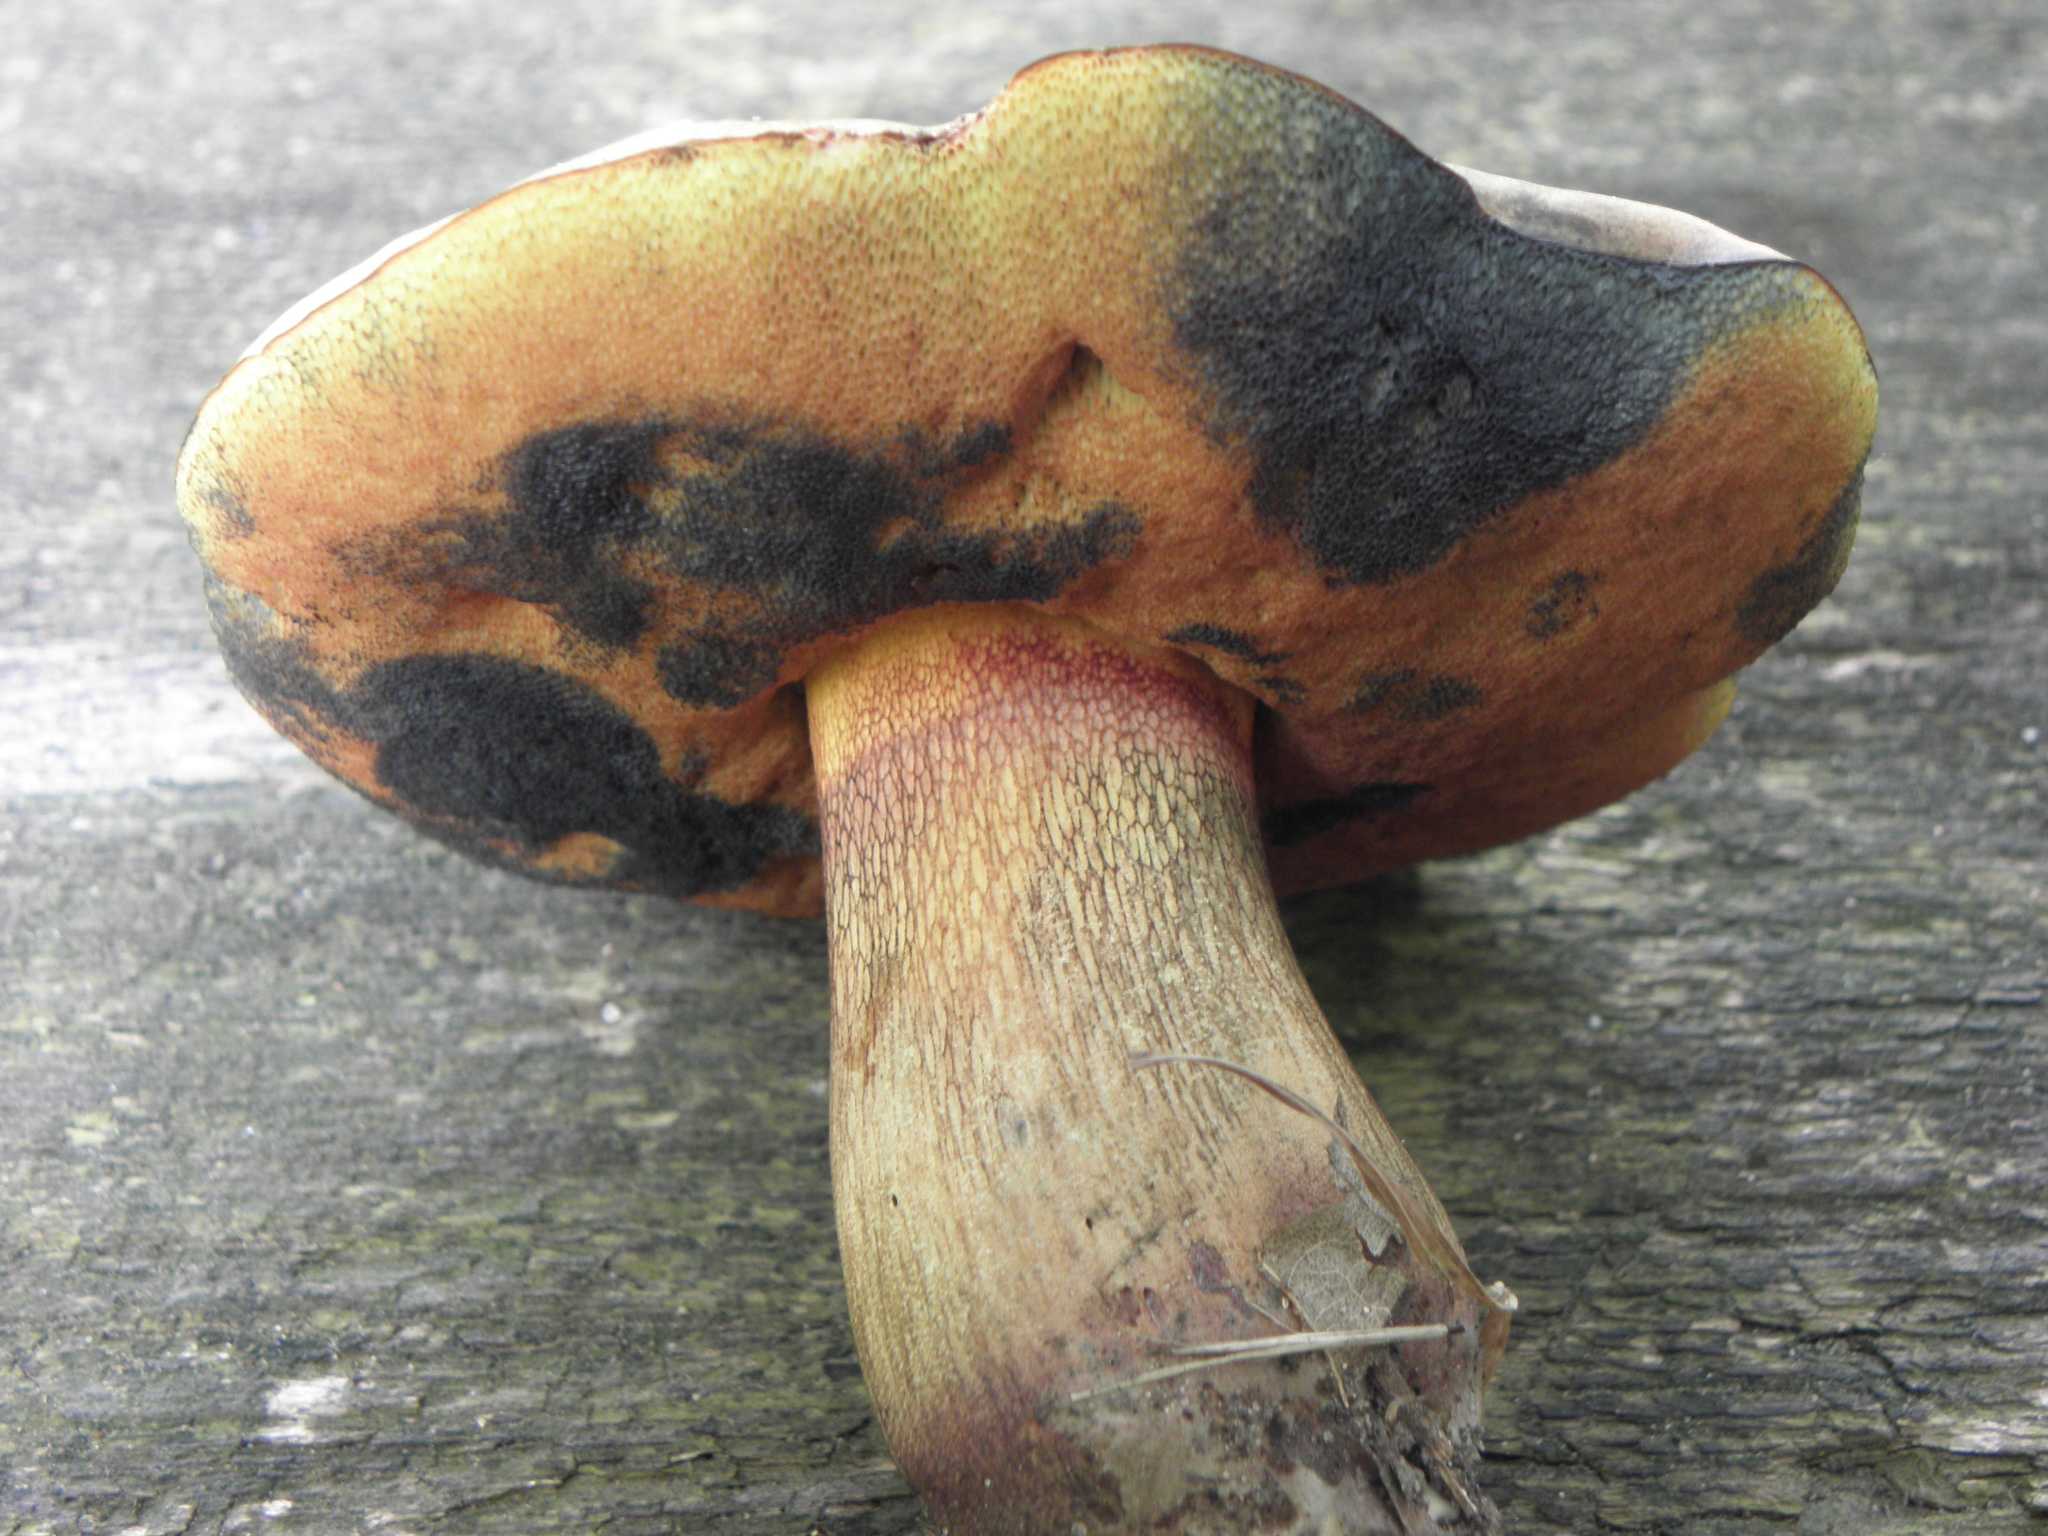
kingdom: Fungi
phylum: Basidiomycota
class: Agaricomycetes
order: Boletales
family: Boletaceae
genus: Suillellus
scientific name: Suillellus luridus
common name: netstokket indigorørhat
